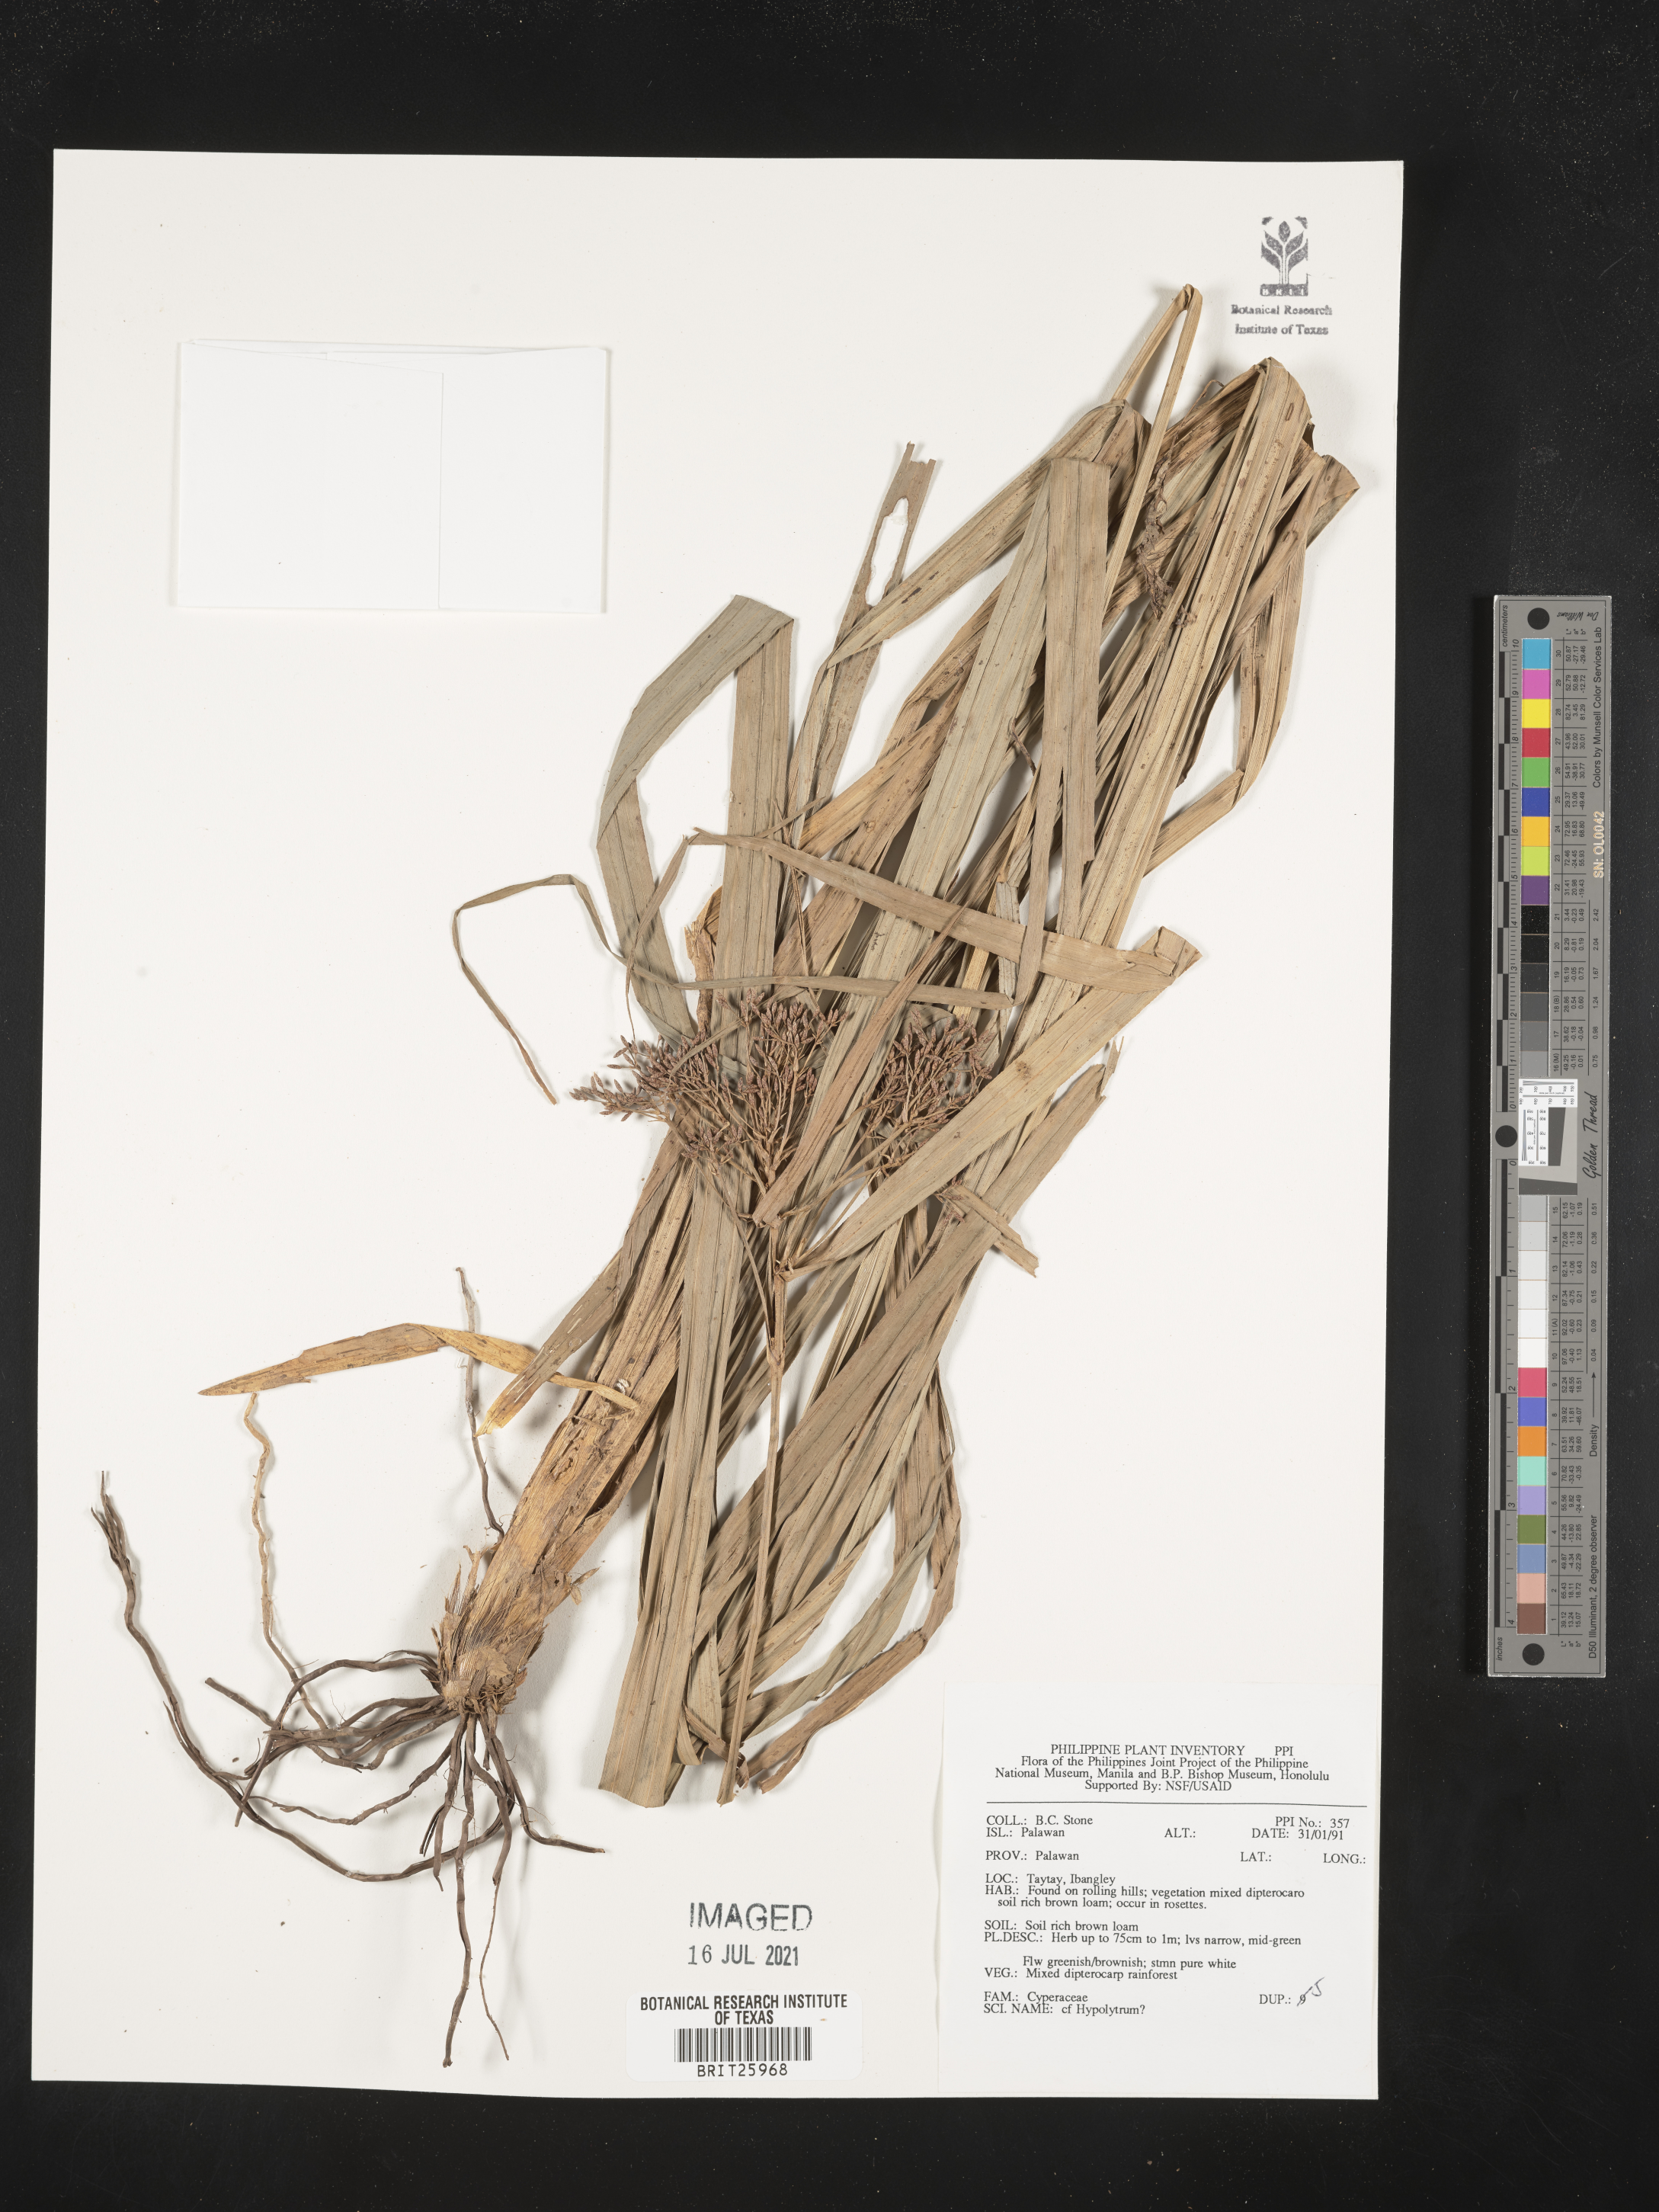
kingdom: Plantae
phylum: Tracheophyta
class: Liliopsida
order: Poales
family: Cyperaceae
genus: Hypolytrum
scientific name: Hypolytrum
